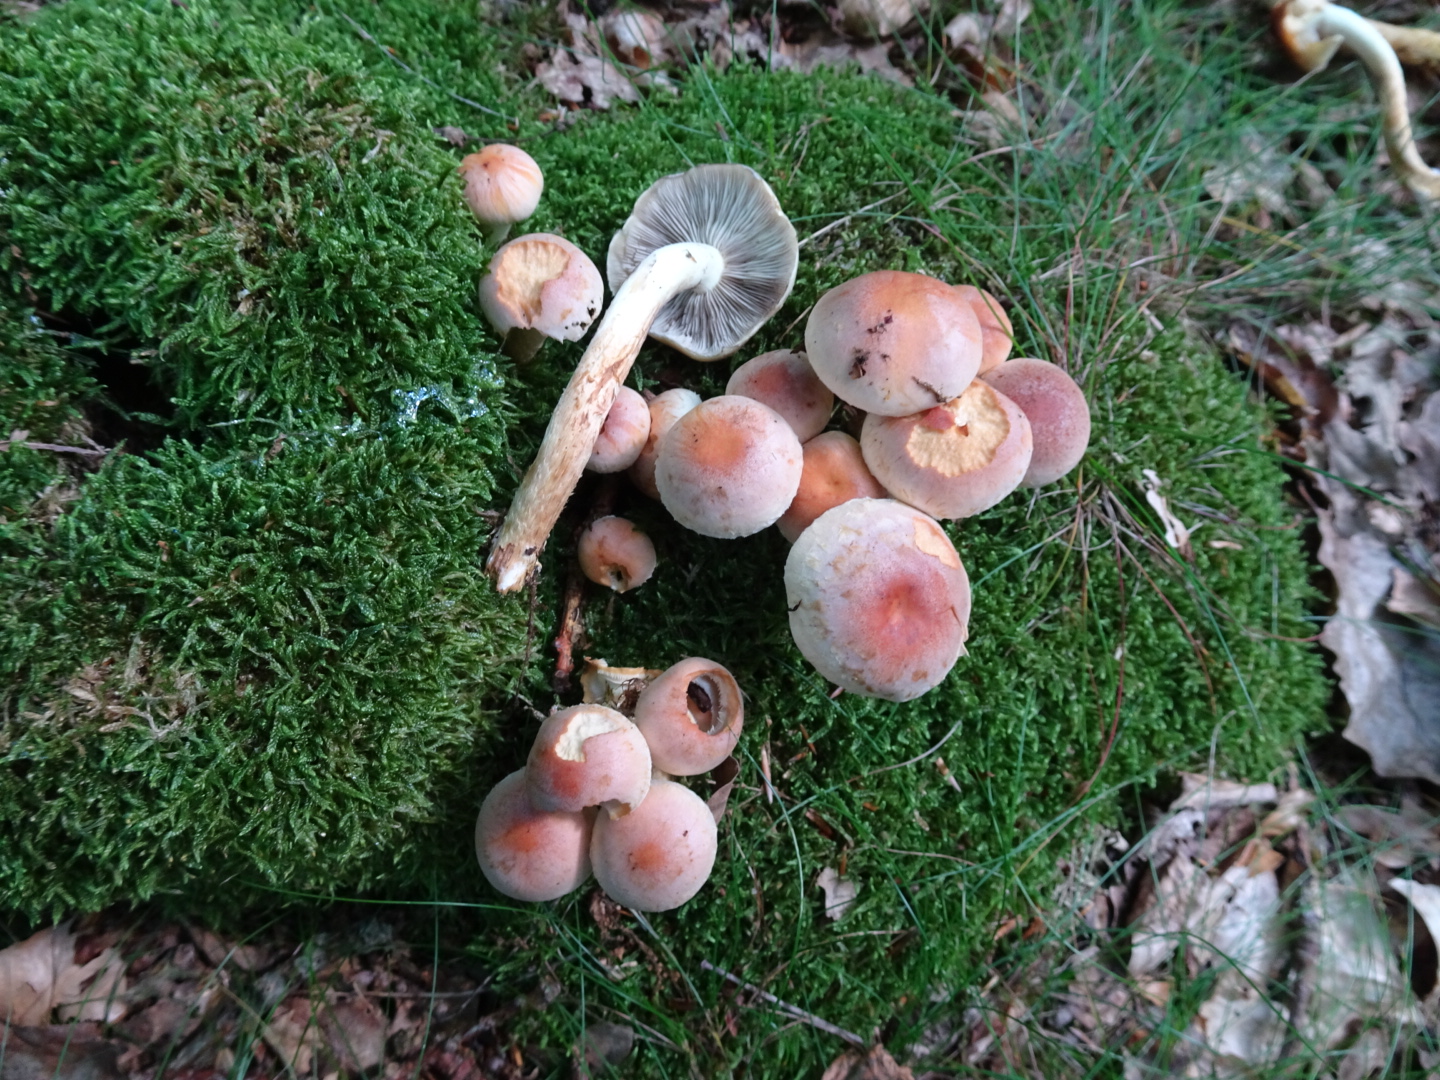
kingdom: Fungi
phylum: Basidiomycota
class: Agaricomycetes
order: Agaricales
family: Strophariaceae
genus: Hypholoma
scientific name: Hypholoma lateritium
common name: teglrød svovlhat
